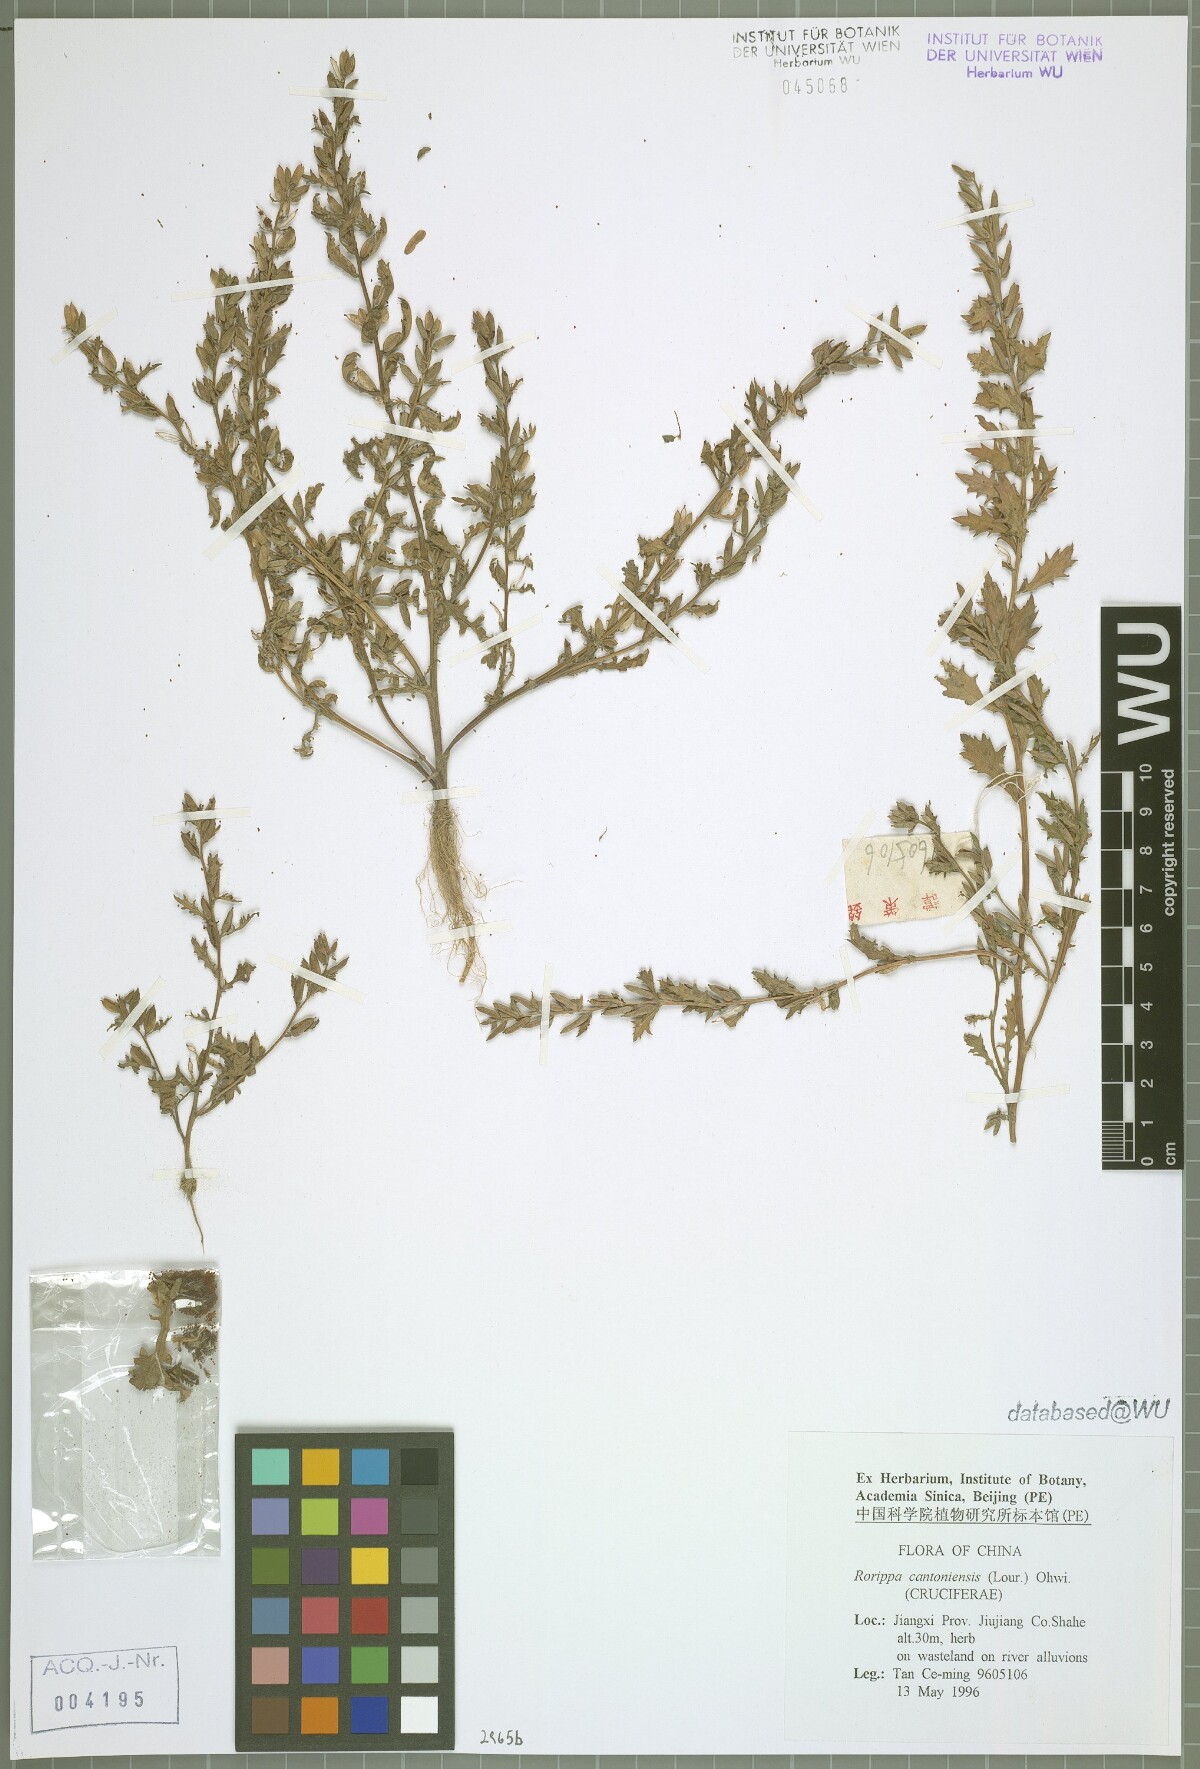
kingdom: Plantae
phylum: Tracheophyta
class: Magnoliopsida
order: Brassicales
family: Brassicaceae
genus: Rorippa
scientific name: Rorippa cantoniensis
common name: Chinese yellowcress
